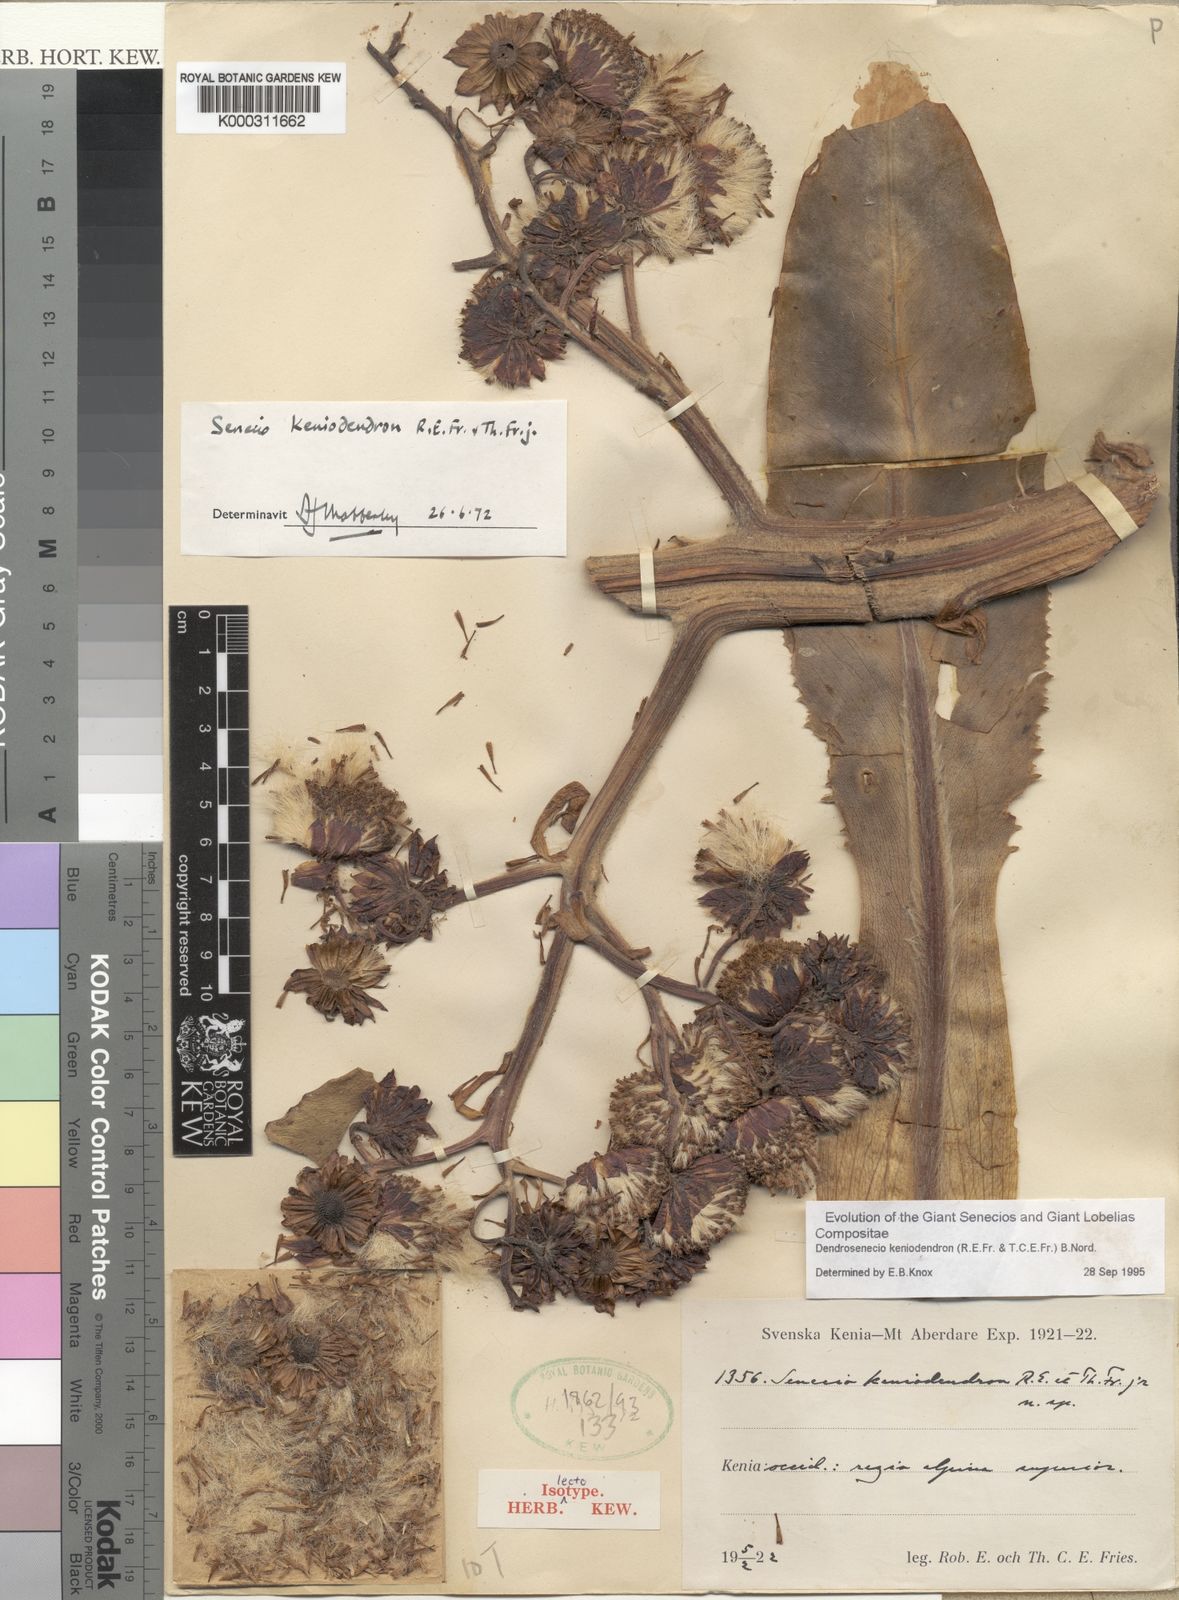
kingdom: Plantae
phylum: Tracheophyta
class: Magnoliopsida
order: Asterales
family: Asteraceae
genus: Dendrosenecio
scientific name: Dendrosenecio keniodendron
